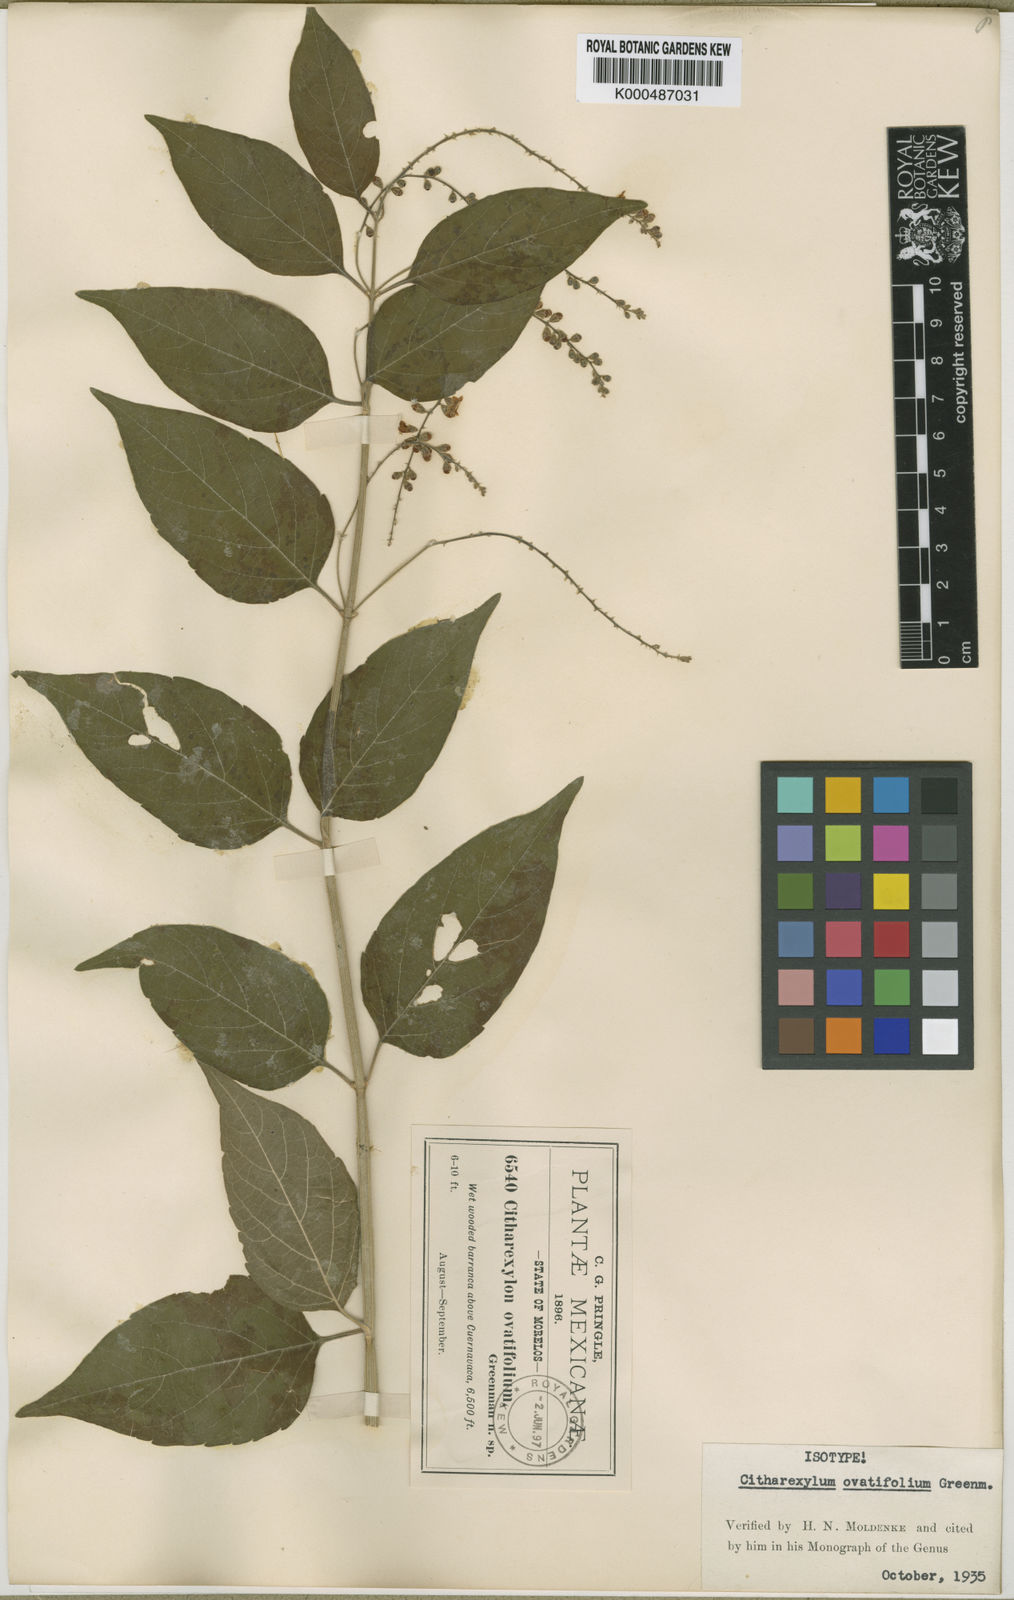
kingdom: Plantae
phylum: Tracheophyta
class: Magnoliopsida
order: Lamiales
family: Verbenaceae
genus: Citharexylum
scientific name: Citharexylum ovatifolium
